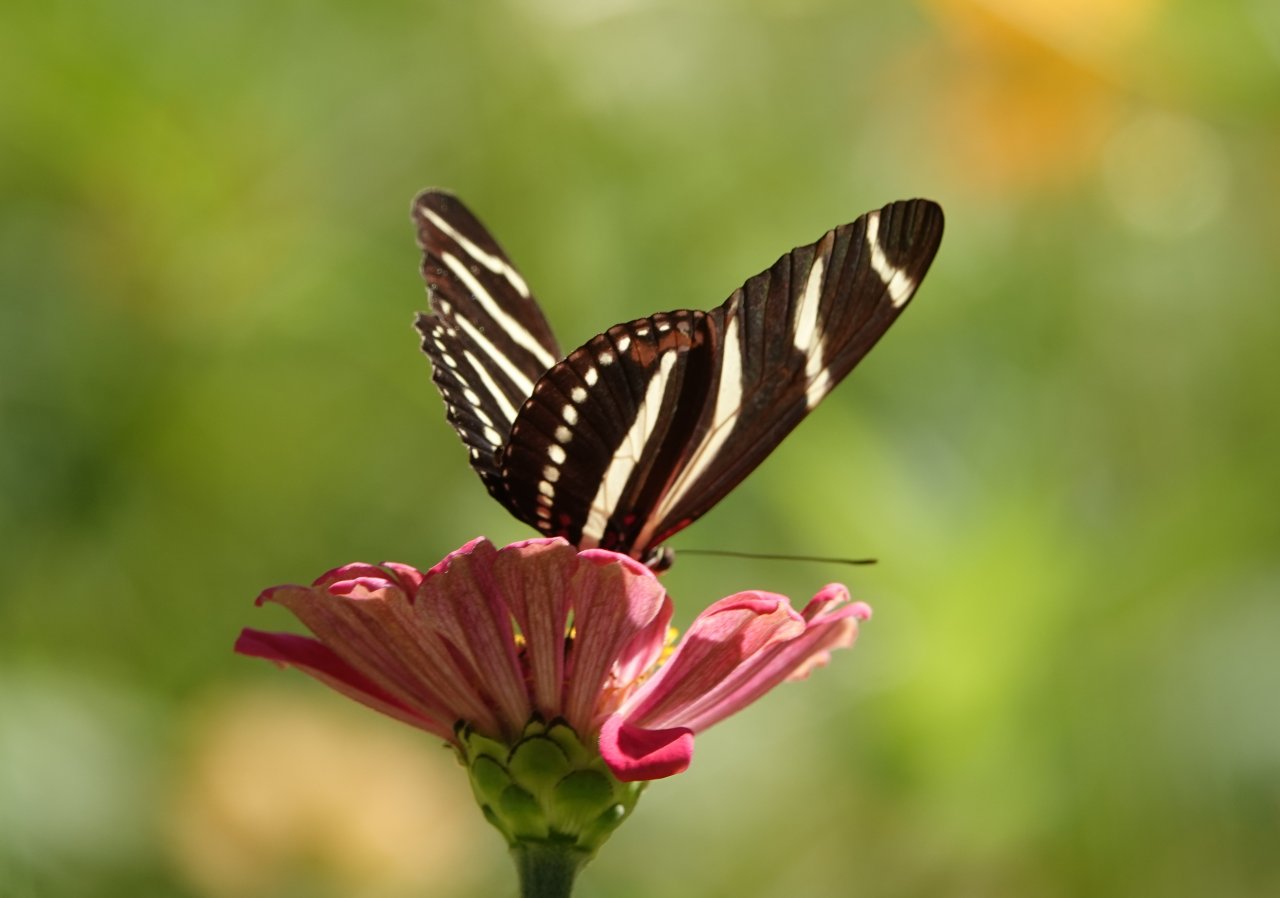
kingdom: Animalia
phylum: Arthropoda
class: Insecta
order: Lepidoptera
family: Nymphalidae
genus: Heliconius
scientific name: Heliconius charithonia
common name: Zebra Longwing
